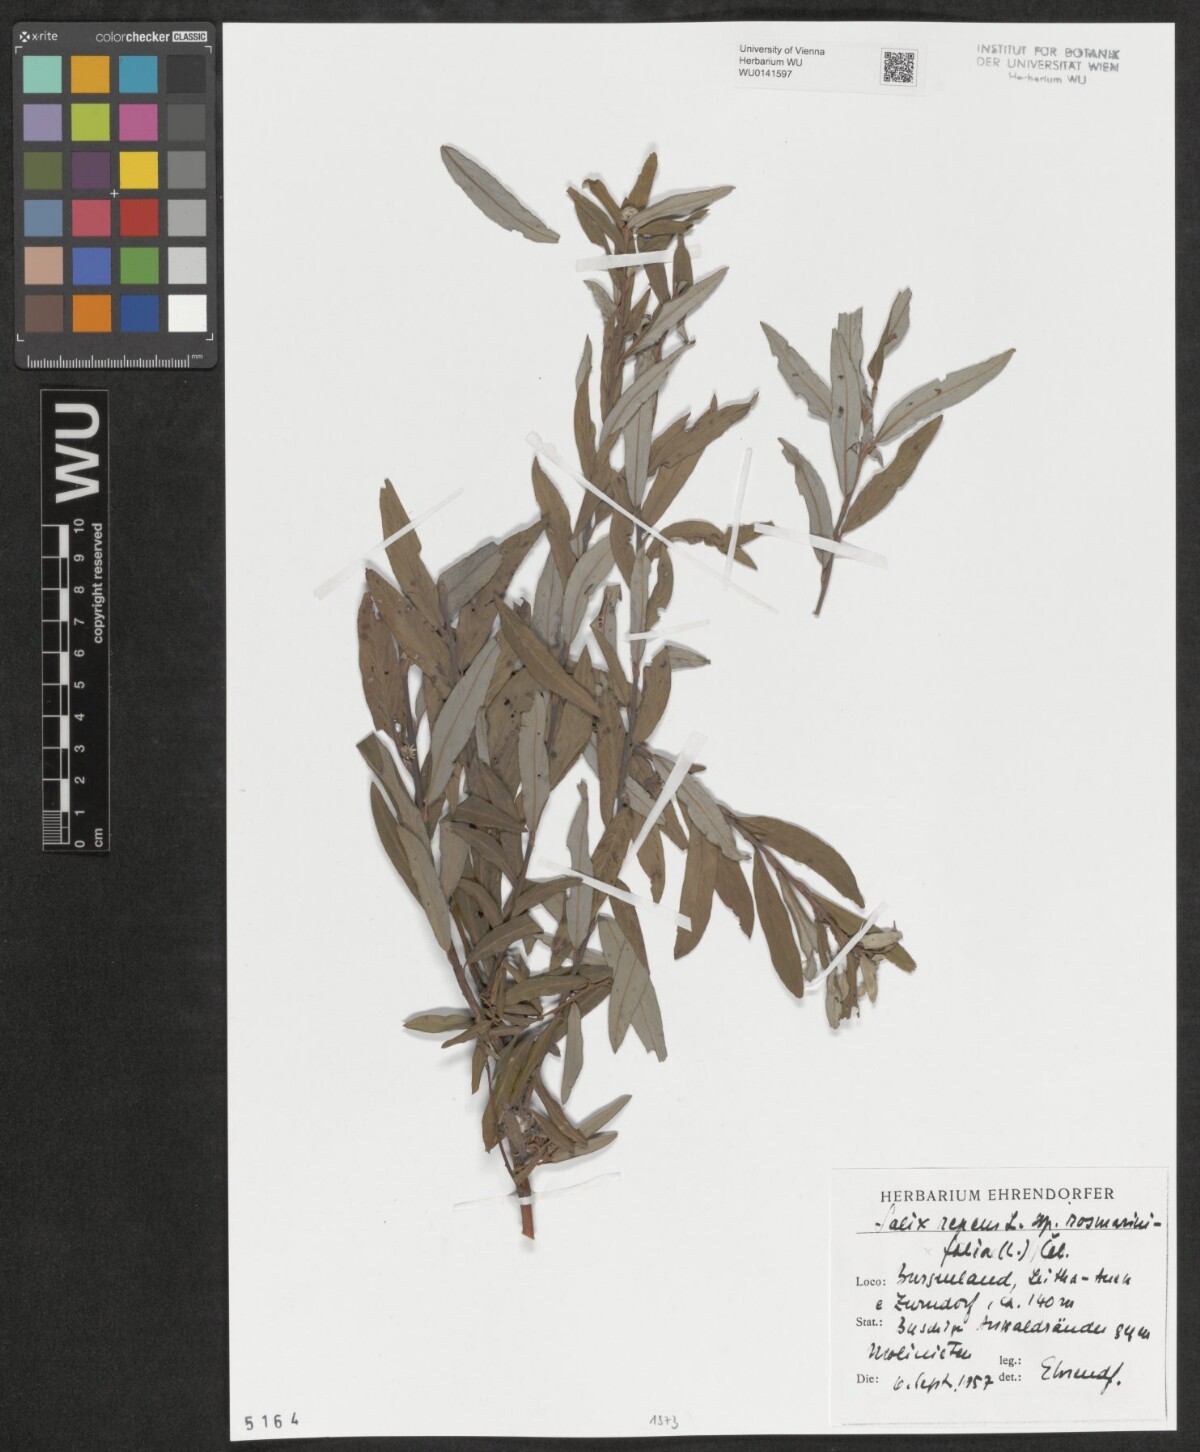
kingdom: Plantae
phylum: Tracheophyta
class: Magnoliopsida
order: Malpighiales
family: Salicaceae
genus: Salix
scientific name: Salix repens
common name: Creeping willow
